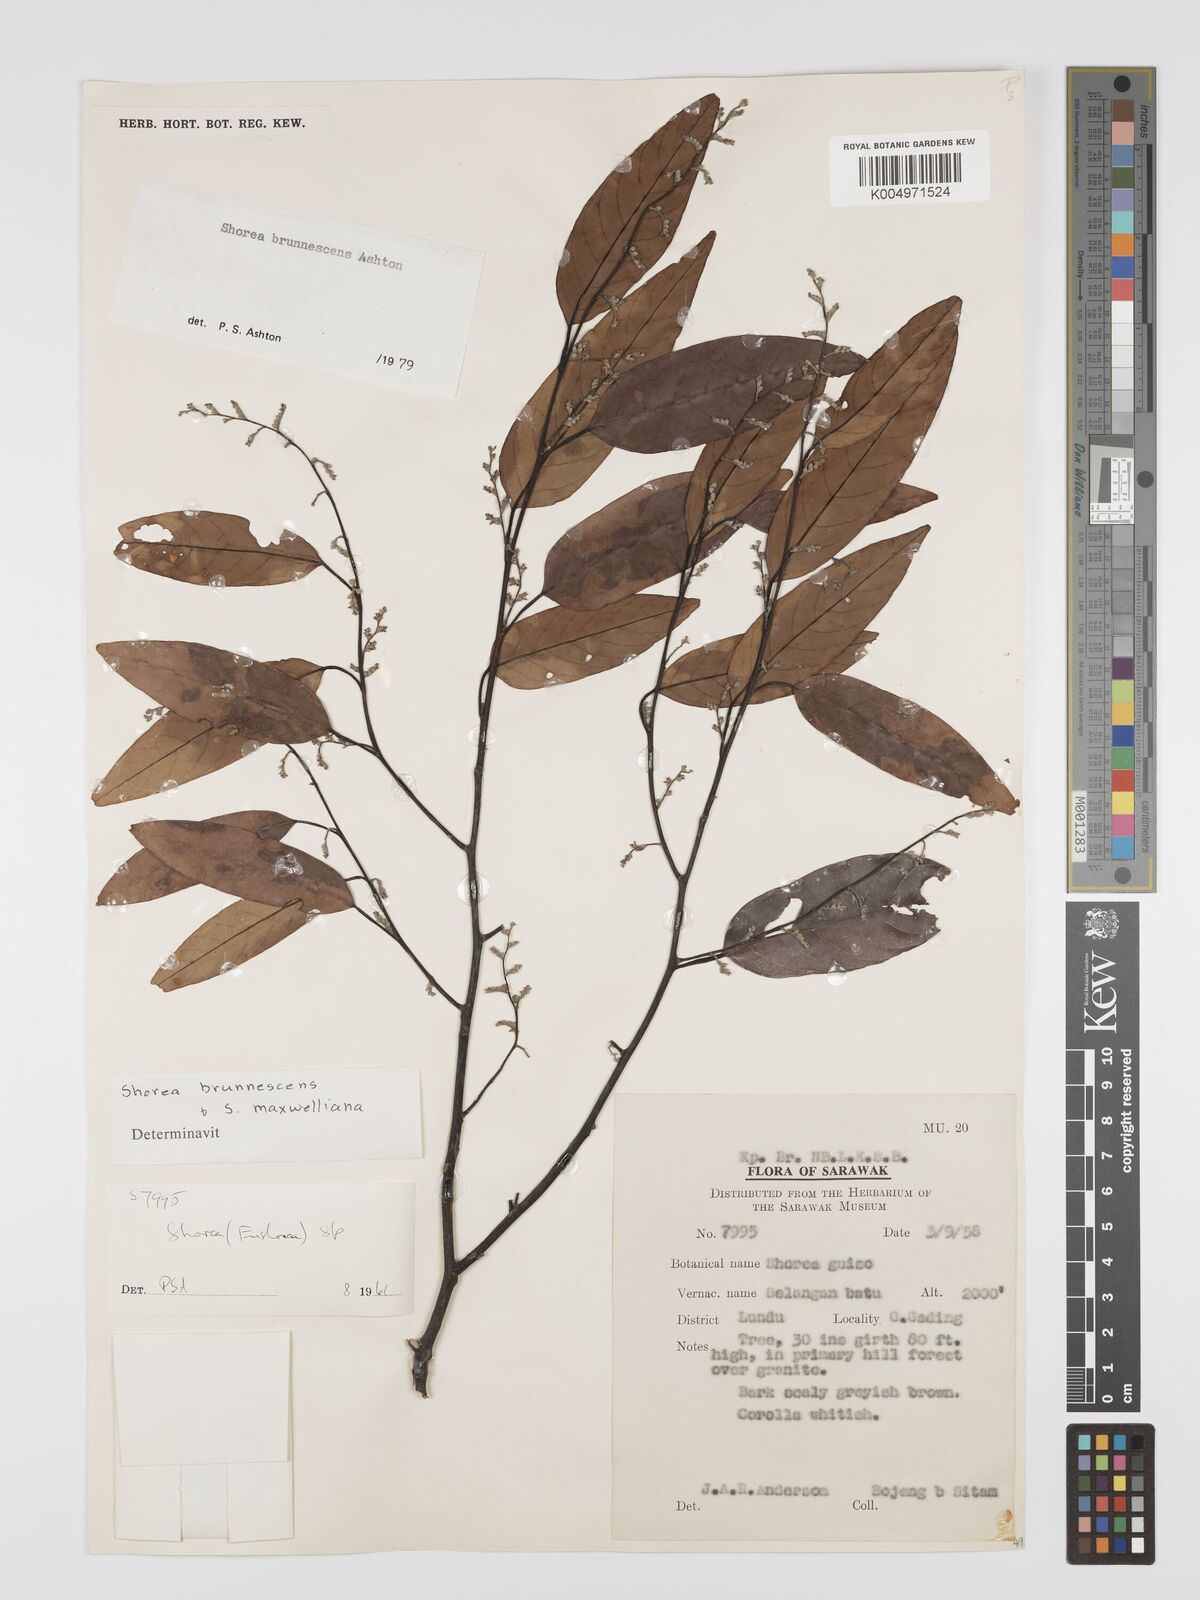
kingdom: Plantae
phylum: Tracheophyta
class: Magnoliopsida
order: Malvales
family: Dipterocarpaceae
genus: Shorea
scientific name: Shorea brunnescens
